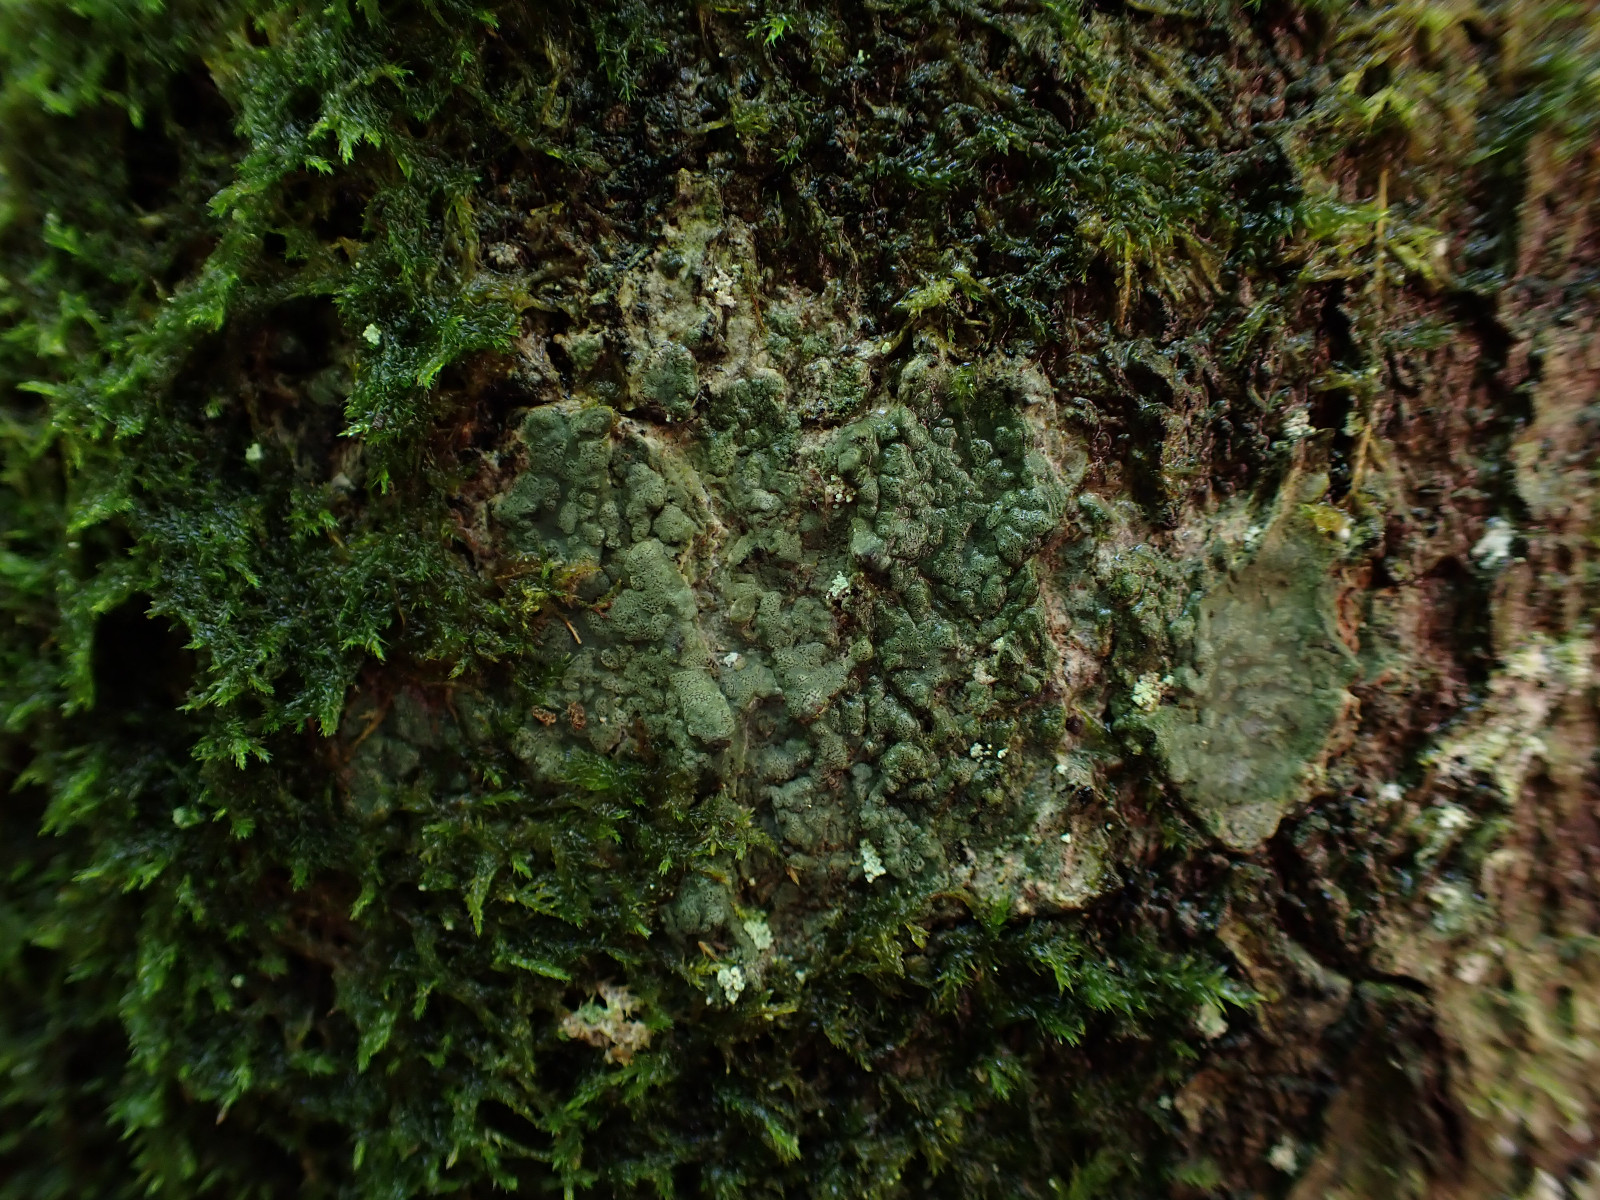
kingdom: Fungi
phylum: Ascomycota
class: Arthoniomycetes
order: Arthoniales
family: Roccellaceae
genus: Enterographa
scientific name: Enterographa crassa
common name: tyk prægelav
